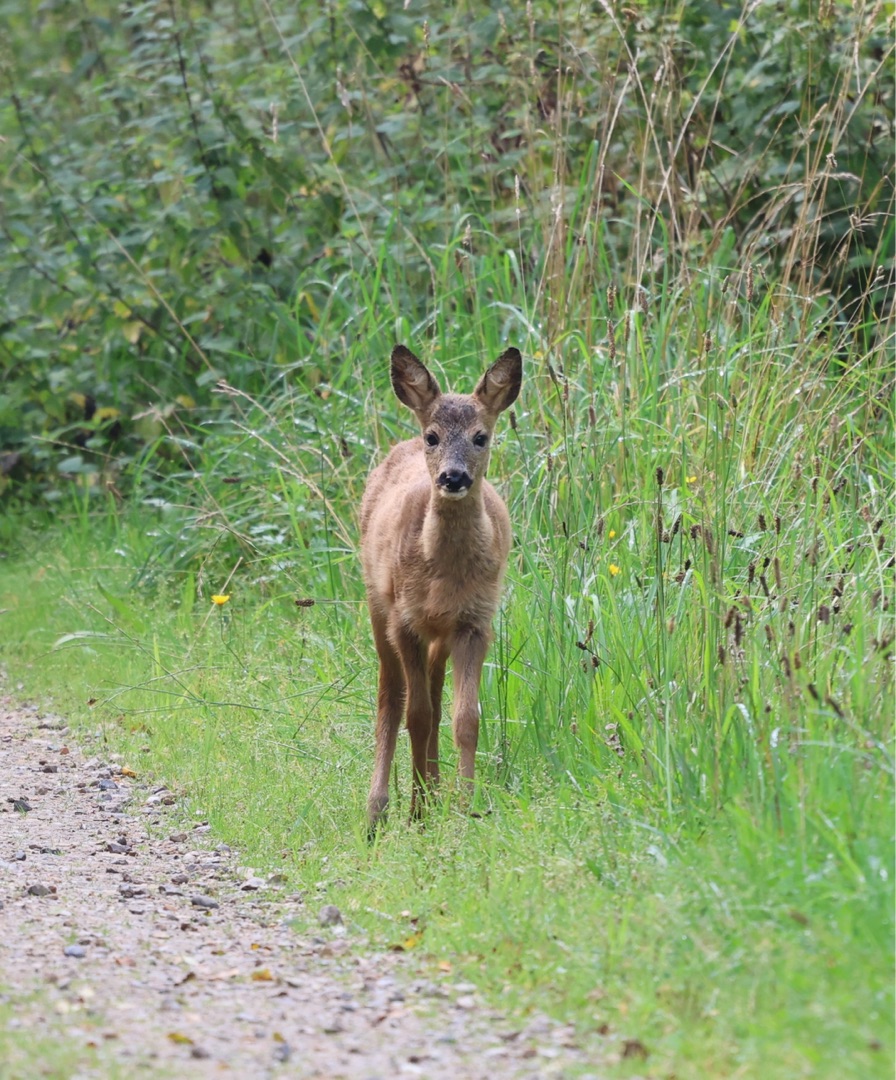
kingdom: Animalia
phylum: Chordata
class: Mammalia
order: Artiodactyla
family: Cervidae
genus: Capreolus
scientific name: Capreolus capreolus
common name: Rådyr
